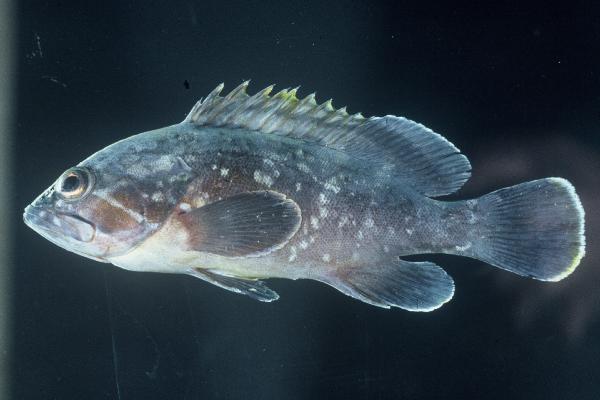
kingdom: Animalia
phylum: Chordata
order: Perciformes
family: Serranidae
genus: Epinephelus
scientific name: Epinephelus marginatus
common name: Dusky grouper
